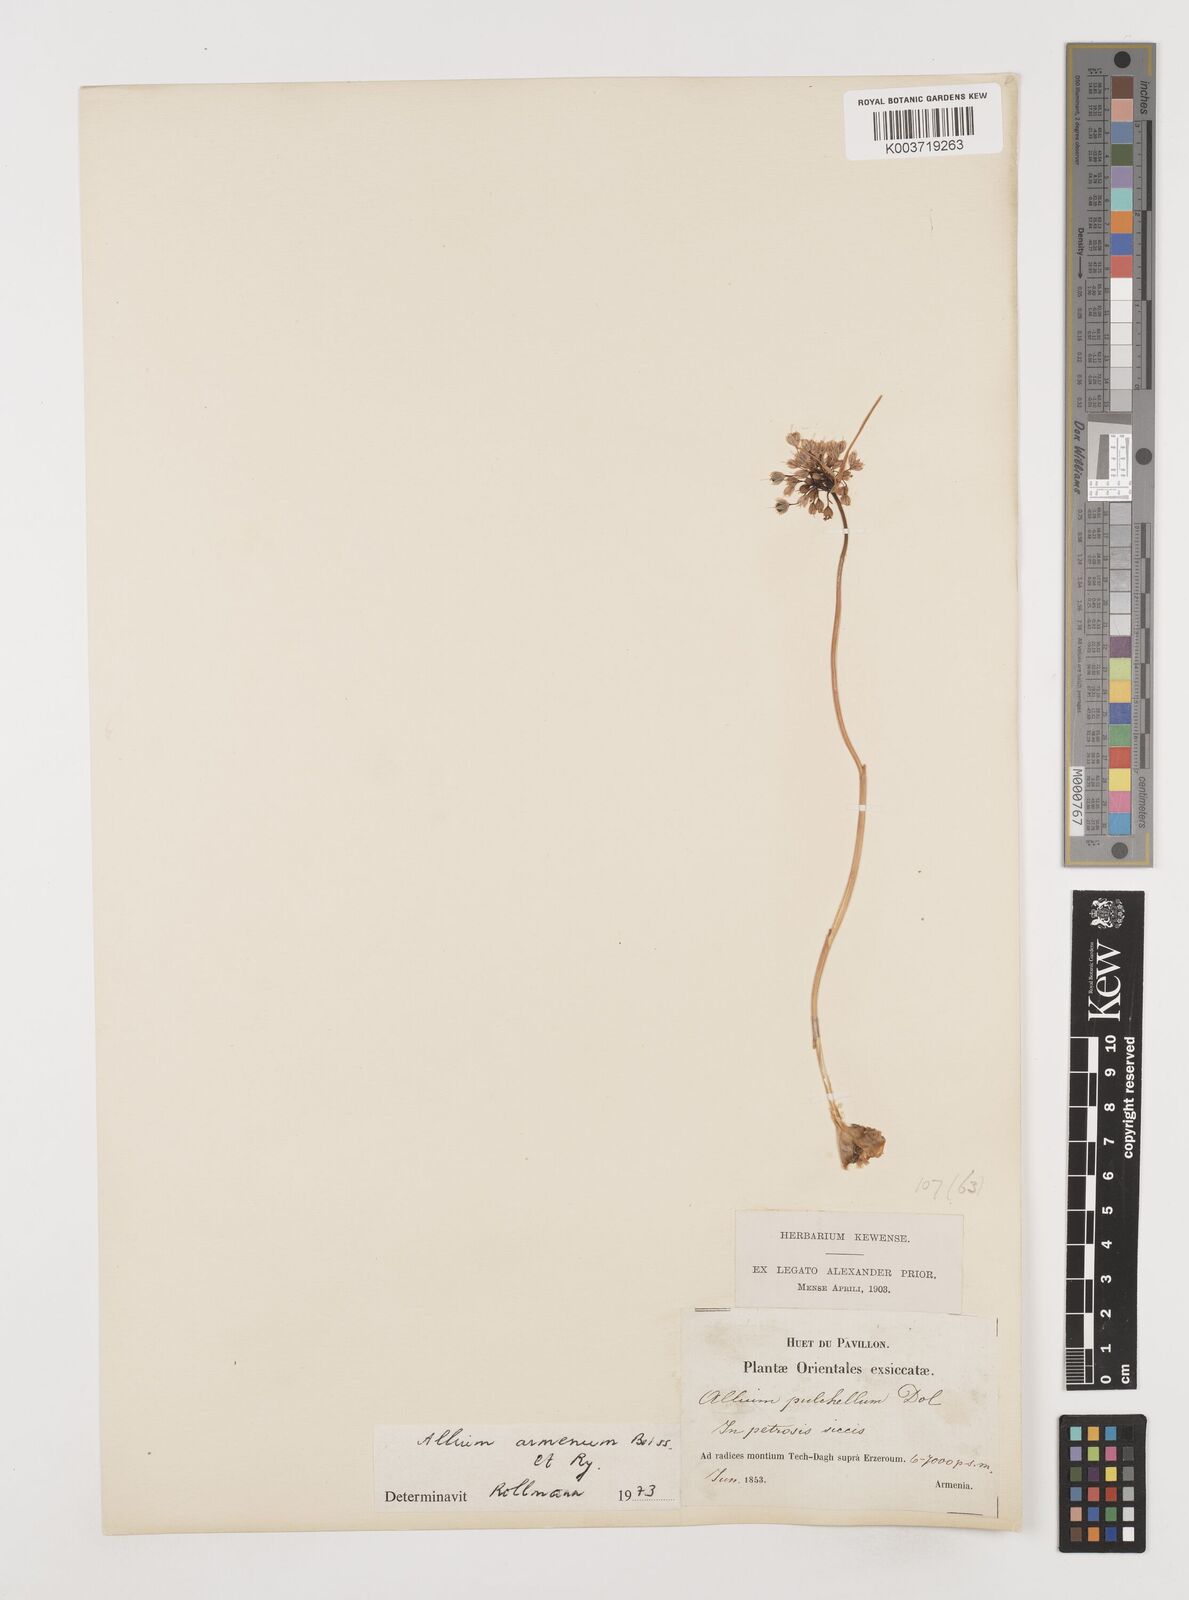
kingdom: Plantae
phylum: Tracheophyta
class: Liliopsida
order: Asparagales
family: Amaryllidaceae
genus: Allium
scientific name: Allium armenum
